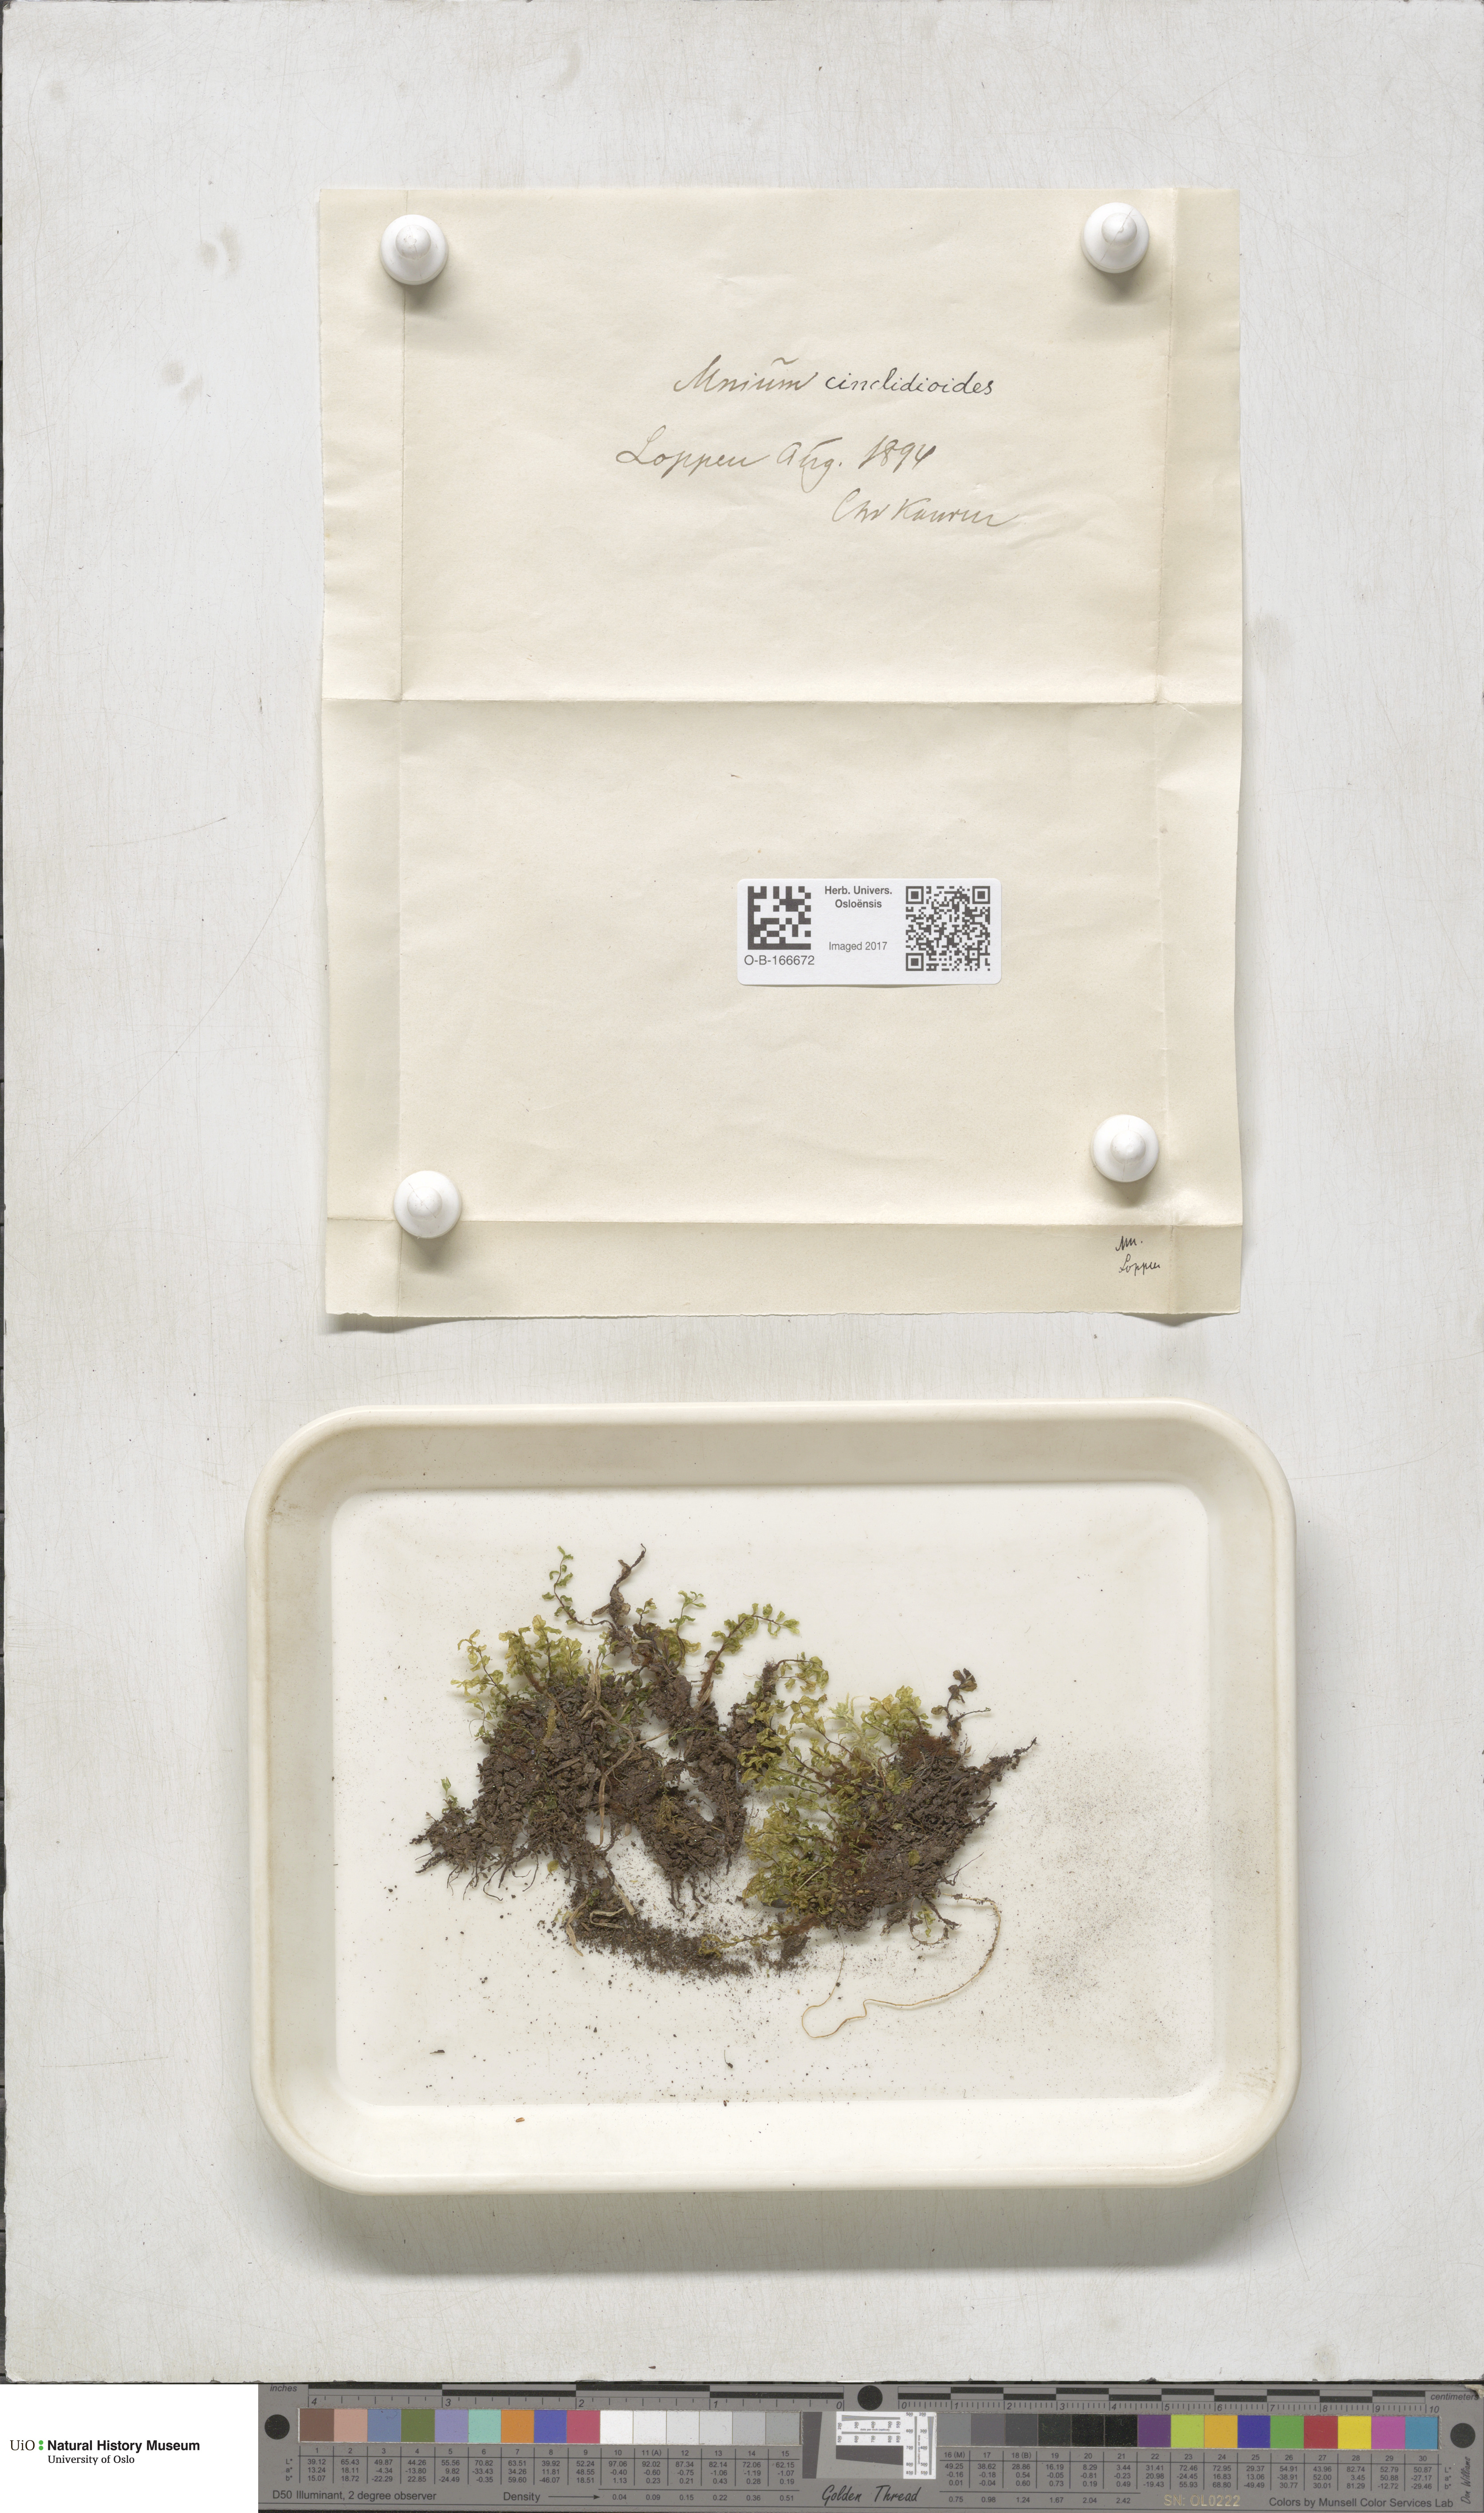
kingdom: Plantae
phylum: Bryophyta
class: Bryopsida
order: Bryales
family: Mniaceae
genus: Pseudobryum
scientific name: Pseudobryum cinclidioides
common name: River thyme moss
